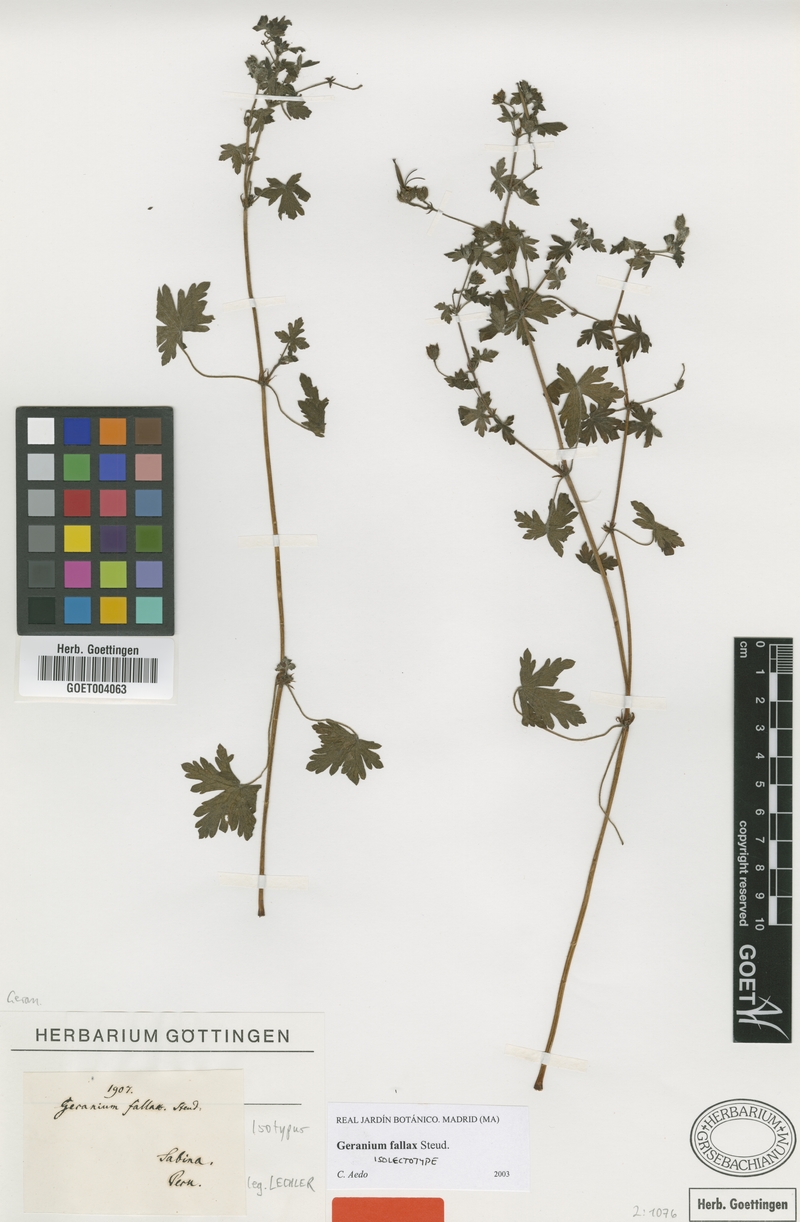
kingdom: Plantae
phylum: Tracheophyta
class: Magnoliopsida
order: Geraniales
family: Geraniaceae
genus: Geranium
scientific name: Geranium fallax
